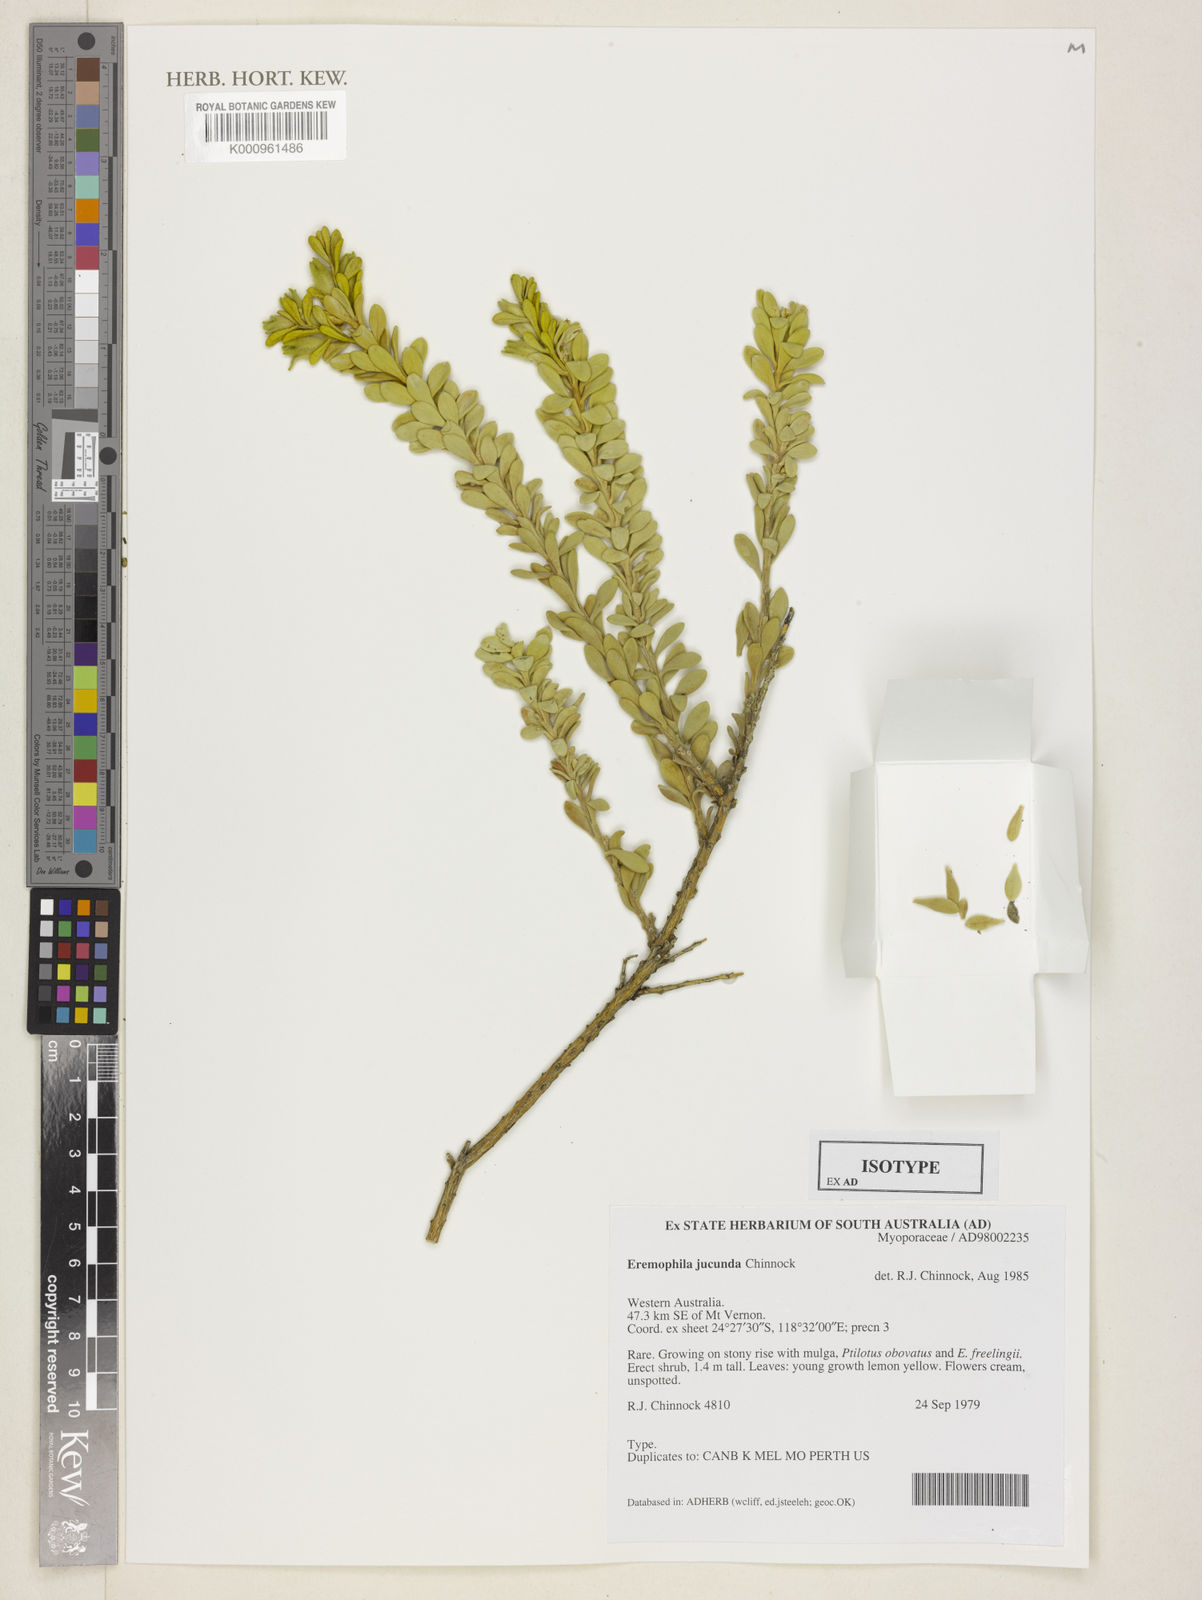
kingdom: Plantae
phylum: Tracheophyta
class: Magnoliopsida
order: Lamiales
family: Scrophulariaceae
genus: Eremophila
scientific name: Eremophila jucunda
